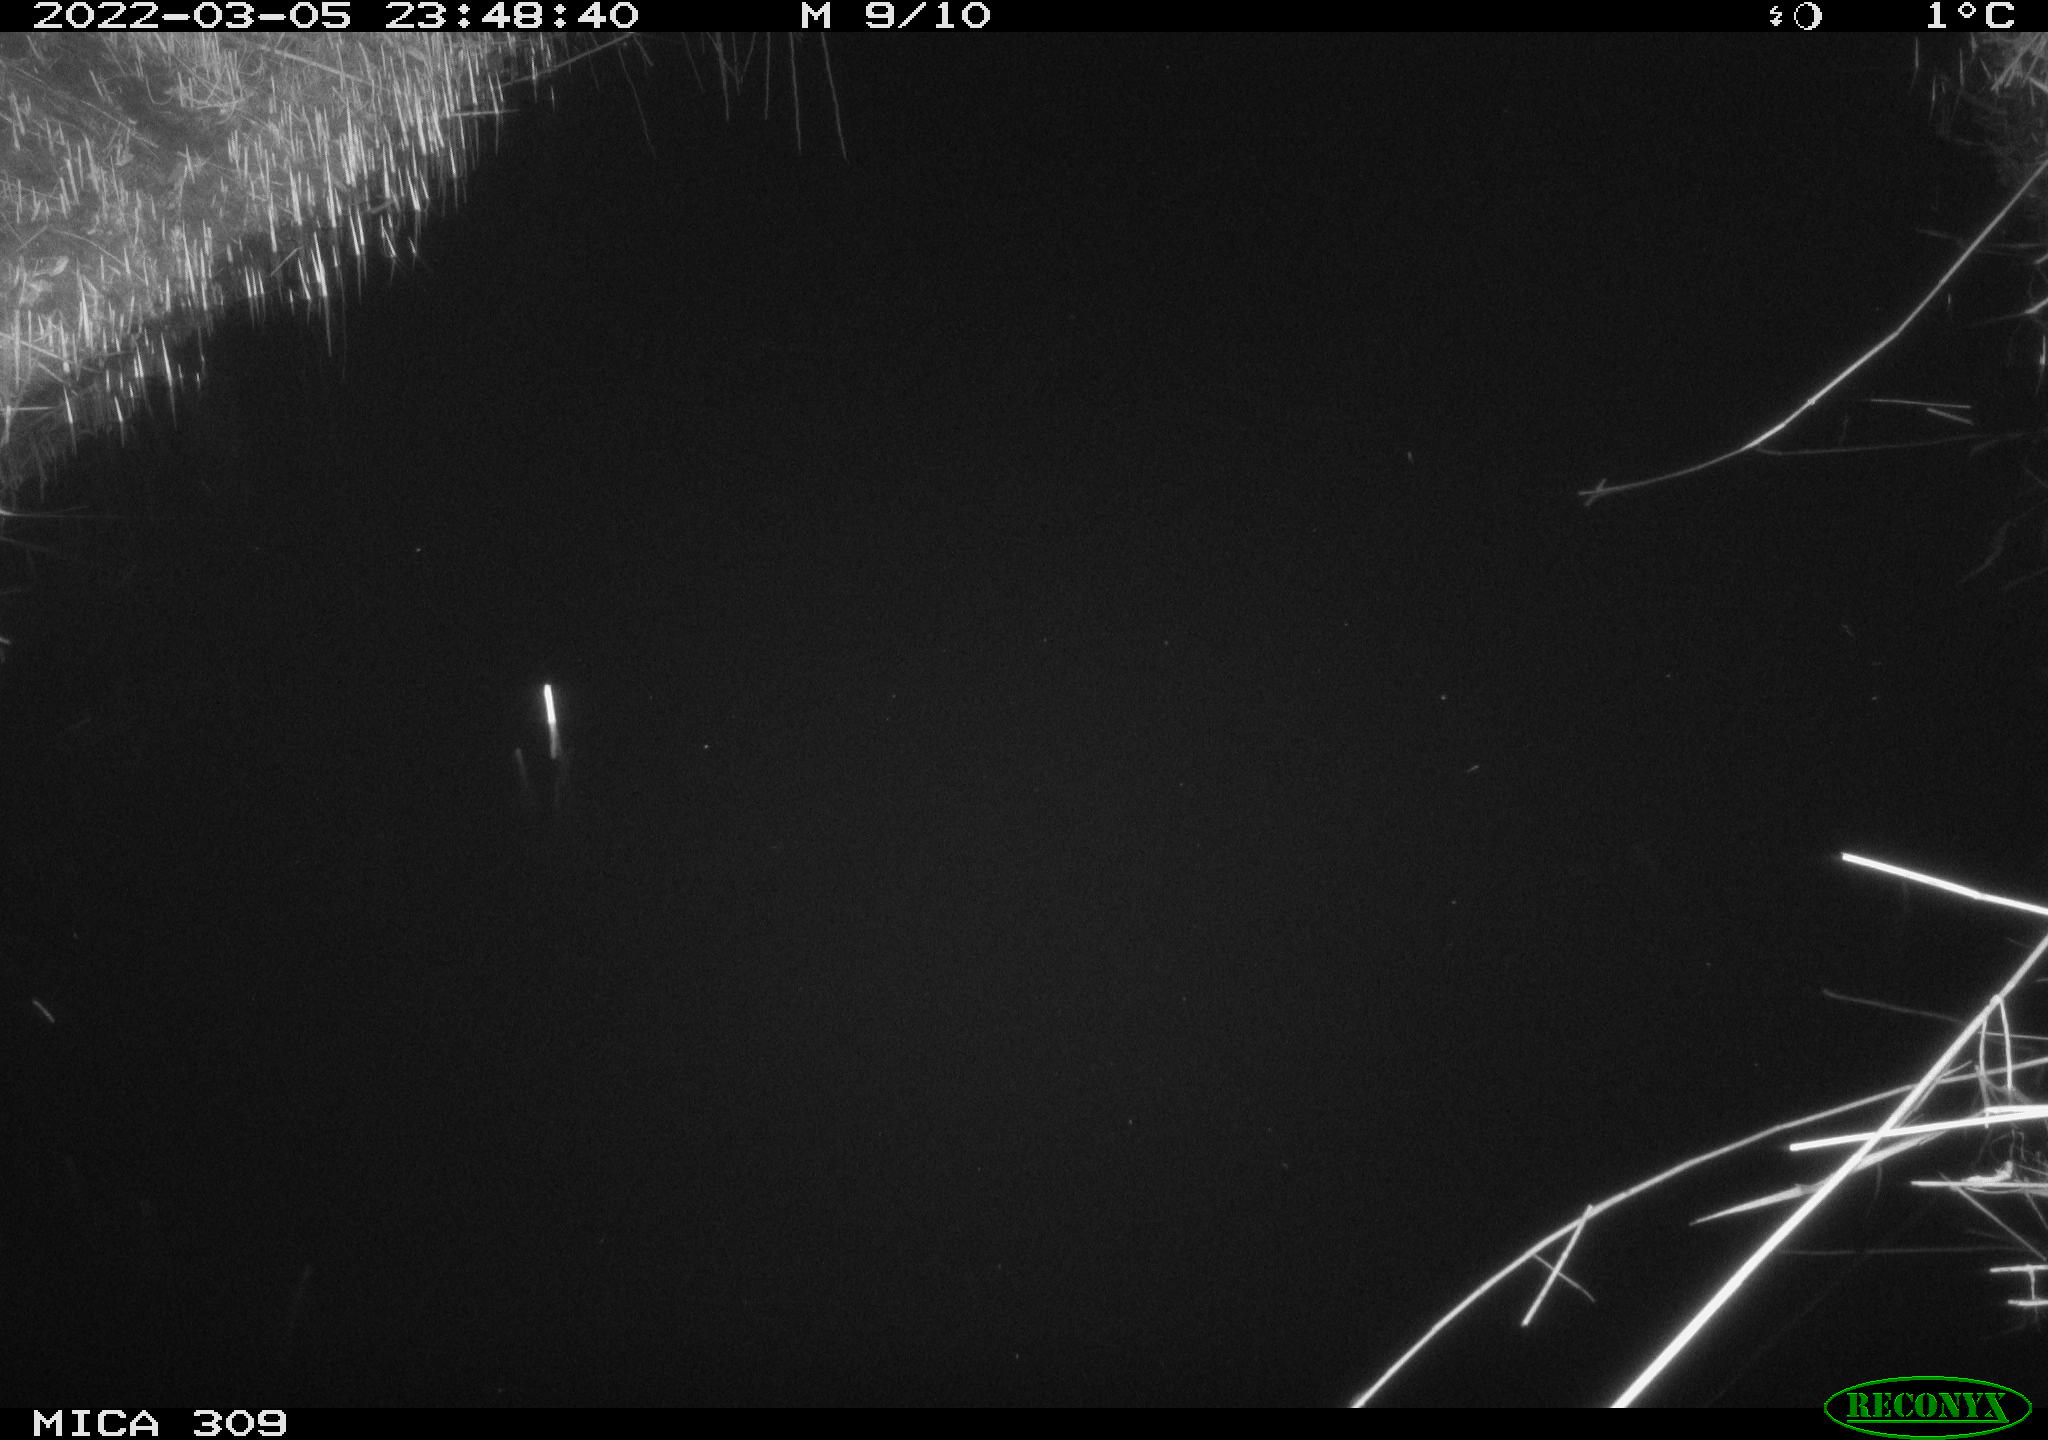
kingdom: Animalia
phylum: Chordata
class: Aves
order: Anseriformes
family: Anatidae
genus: Anas
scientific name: Anas platyrhynchos
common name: Mallard
